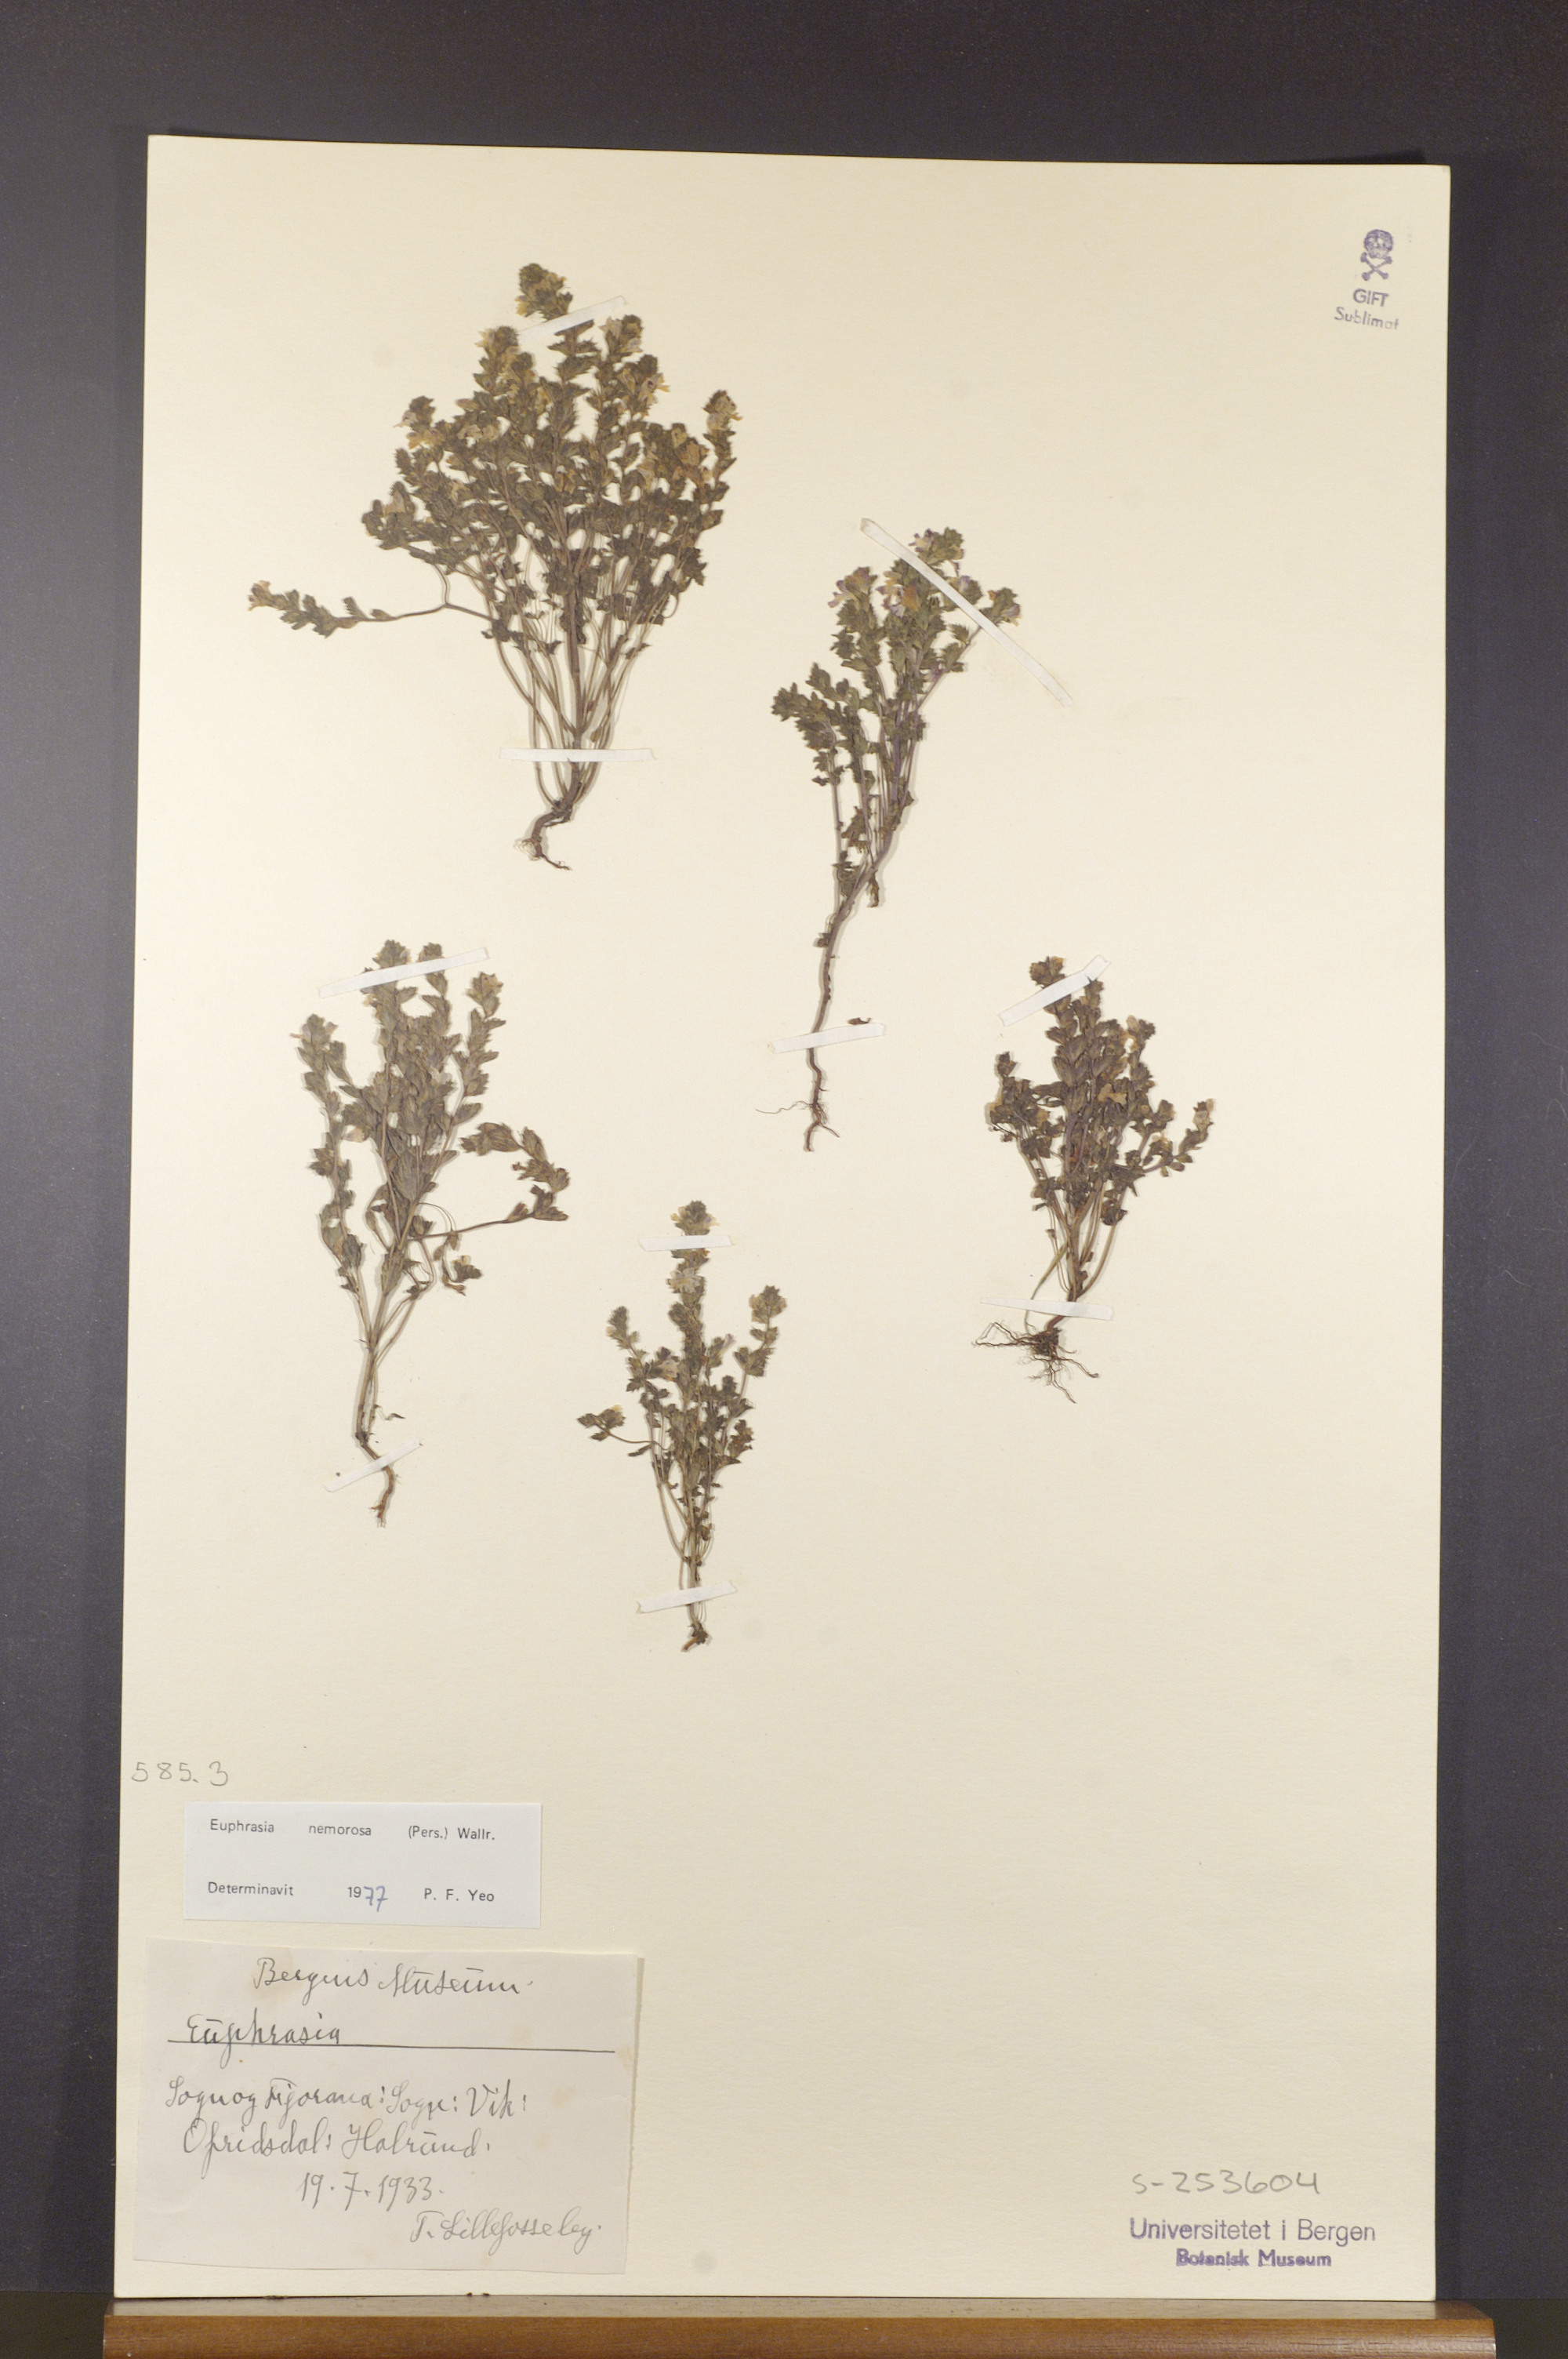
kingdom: Plantae
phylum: Tracheophyta
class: Magnoliopsida
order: Lamiales
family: Orobanchaceae
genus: Euphrasia
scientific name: Euphrasia nemorosa
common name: Common eyebright
